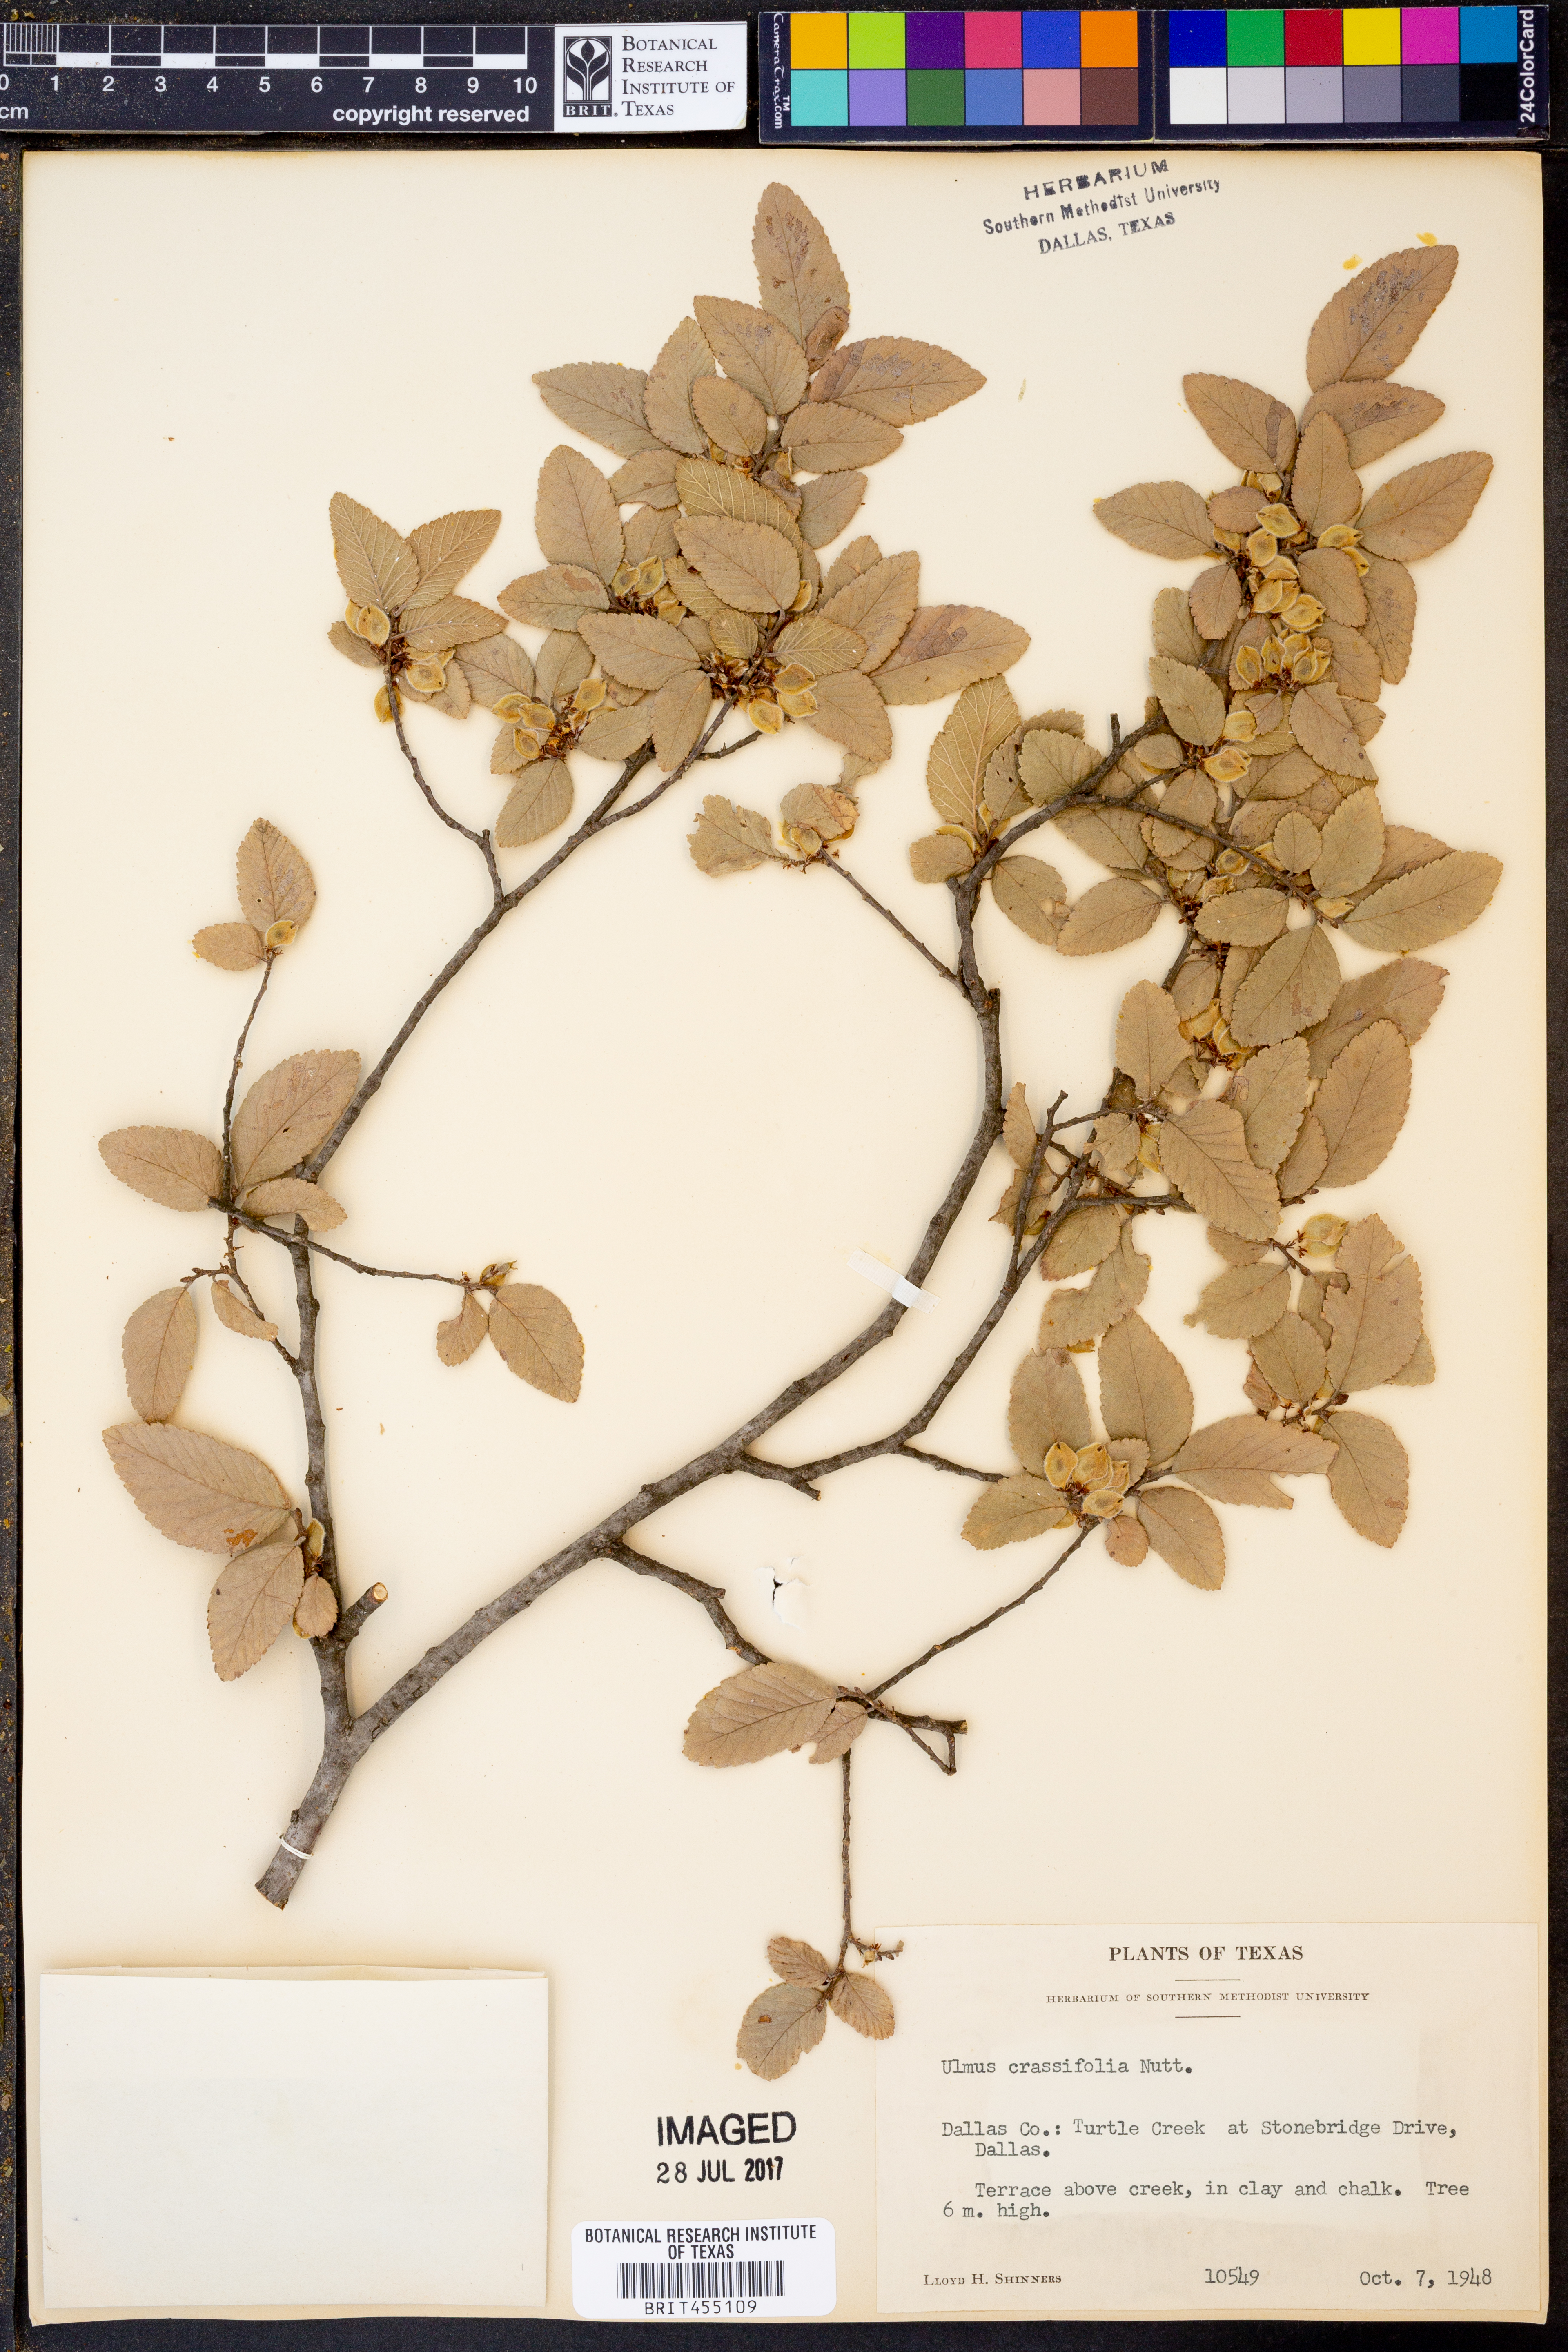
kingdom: Plantae
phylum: Tracheophyta
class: Magnoliopsida
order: Rosales
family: Ulmaceae
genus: Ulmus
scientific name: Ulmus crassifolia
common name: Basket elm
